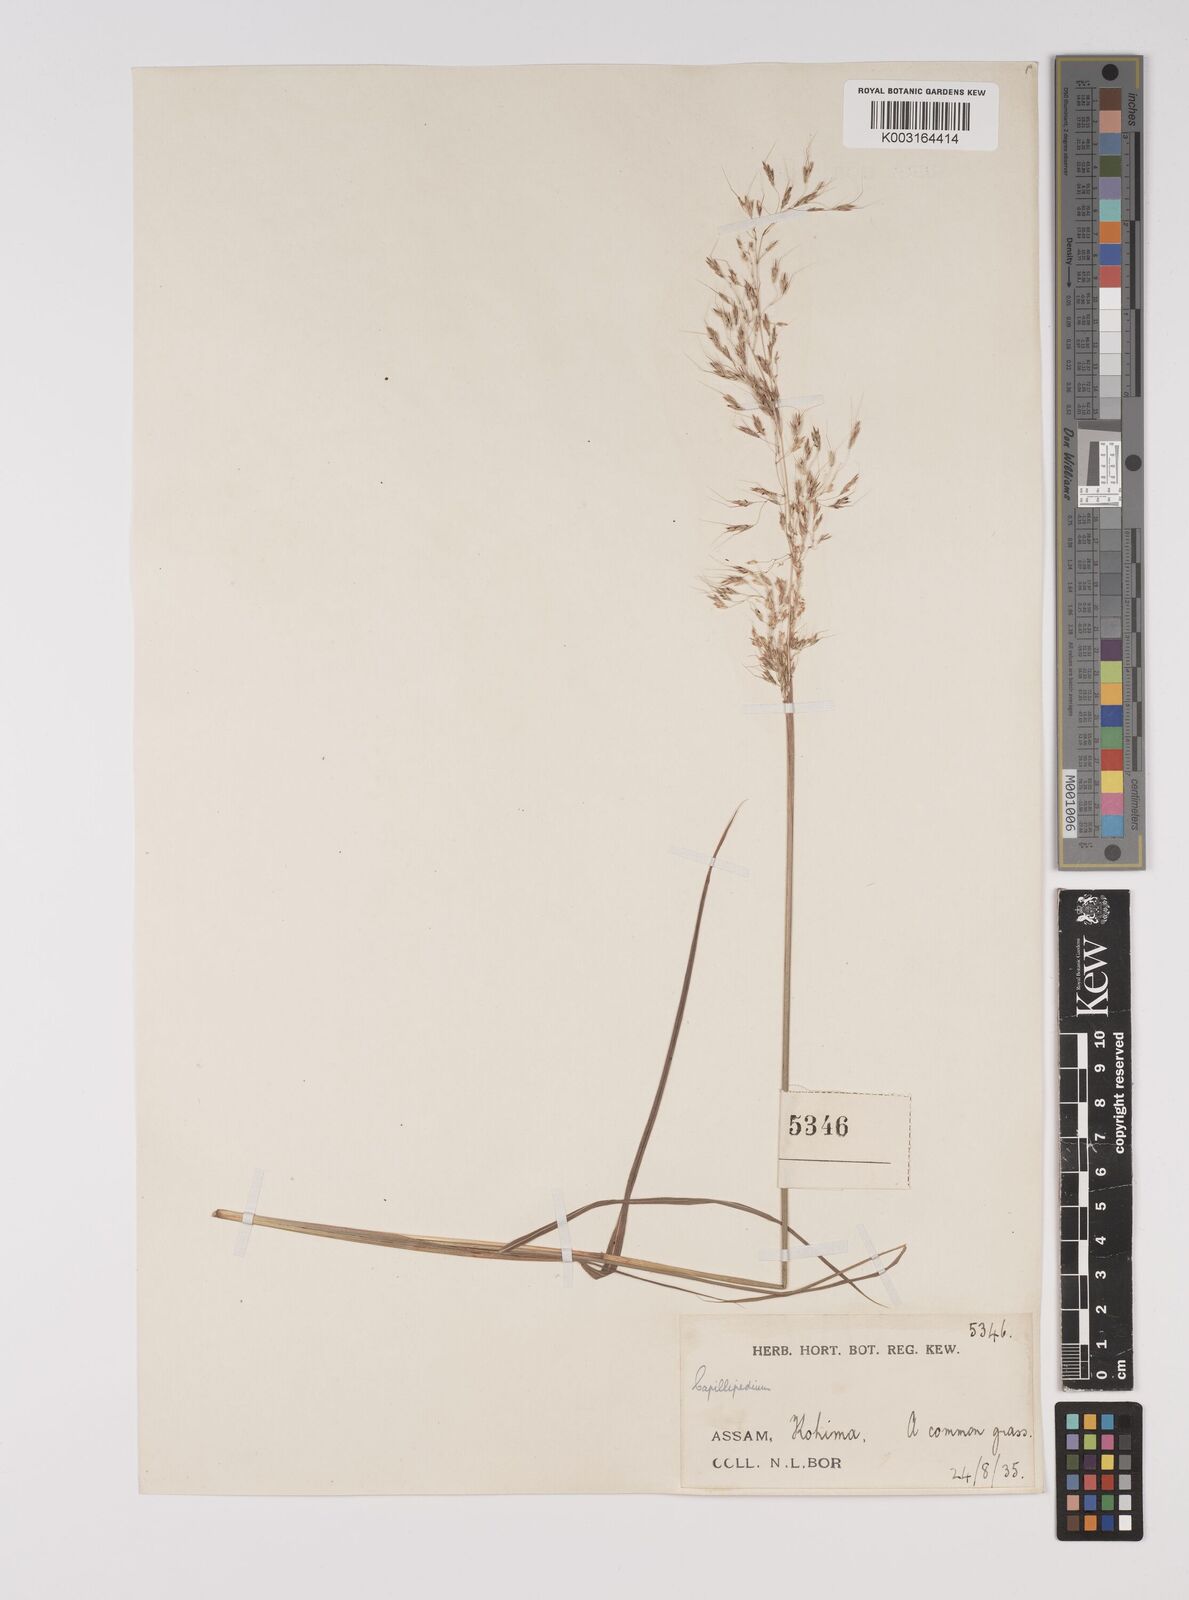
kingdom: Plantae
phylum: Tracheophyta
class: Liliopsida
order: Poales
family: Poaceae
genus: Capillipedium
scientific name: Capillipedium assimile
